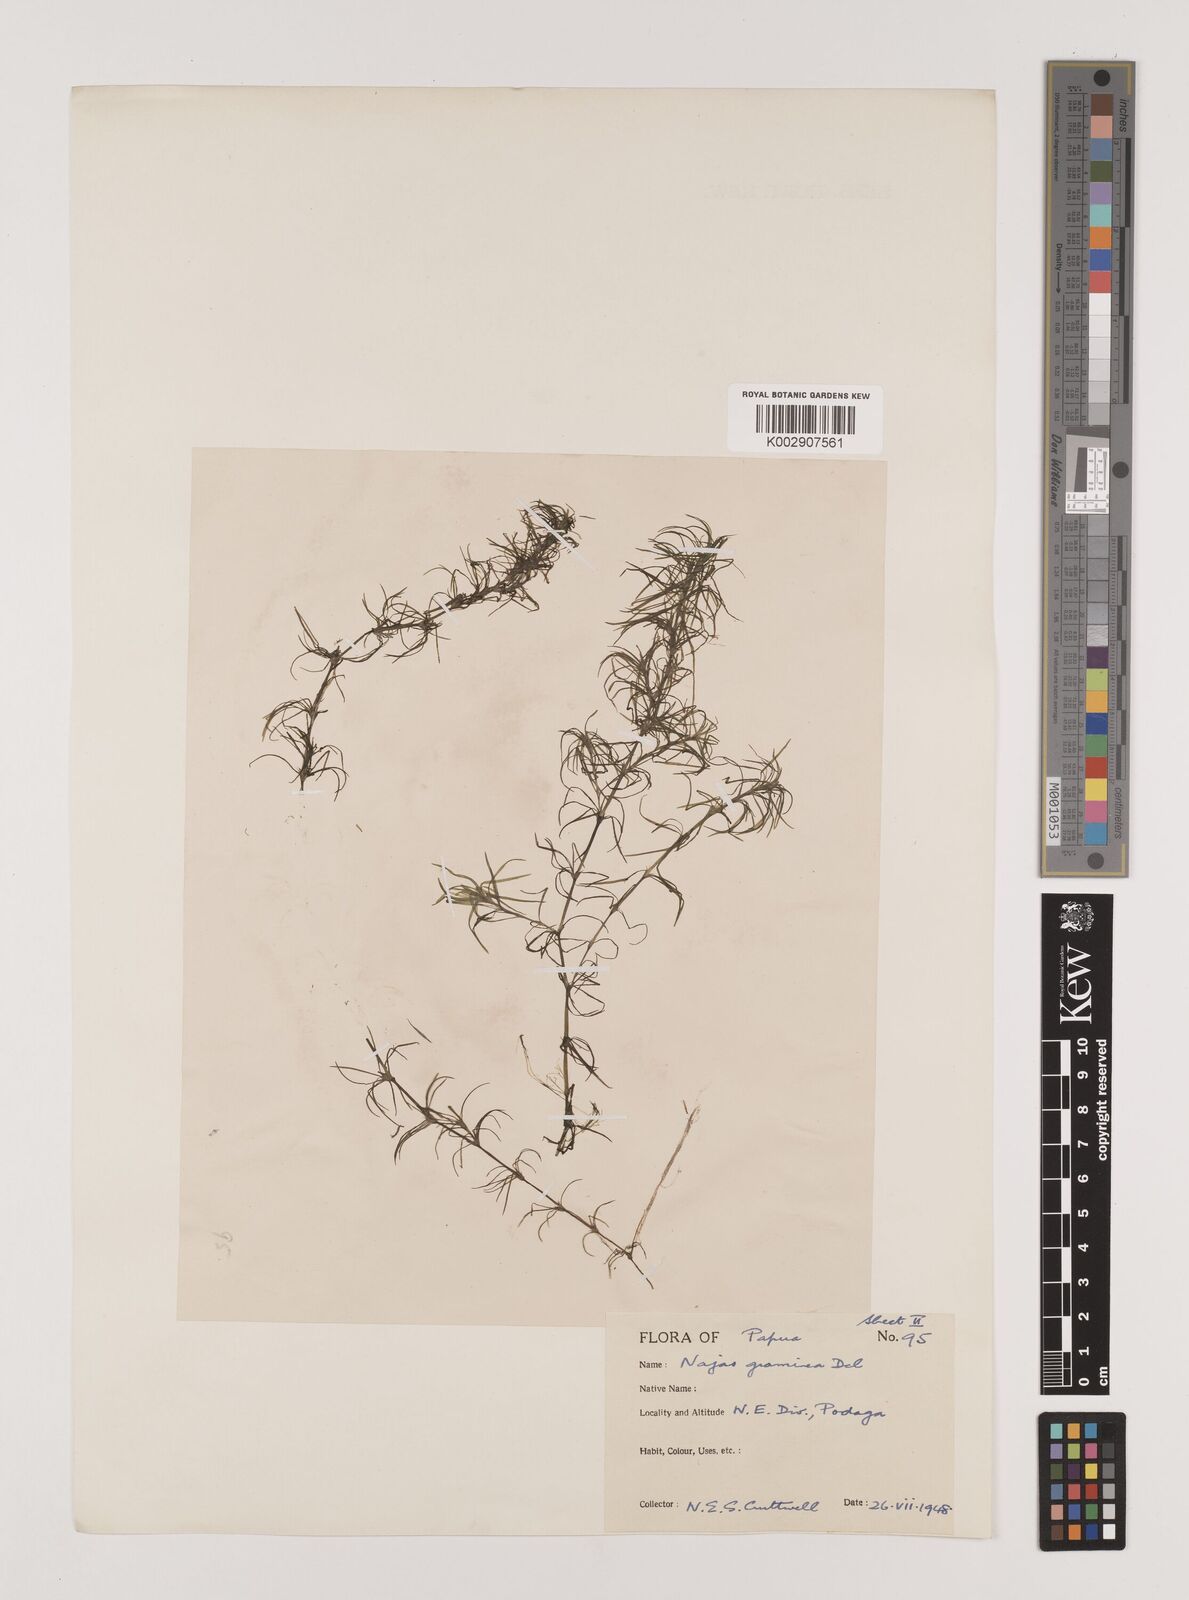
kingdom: Plantae
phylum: Tracheophyta
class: Liliopsida
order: Alismatales
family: Hydrocharitaceae
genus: Najas
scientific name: Najas graminea
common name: Ricefield waternymph
